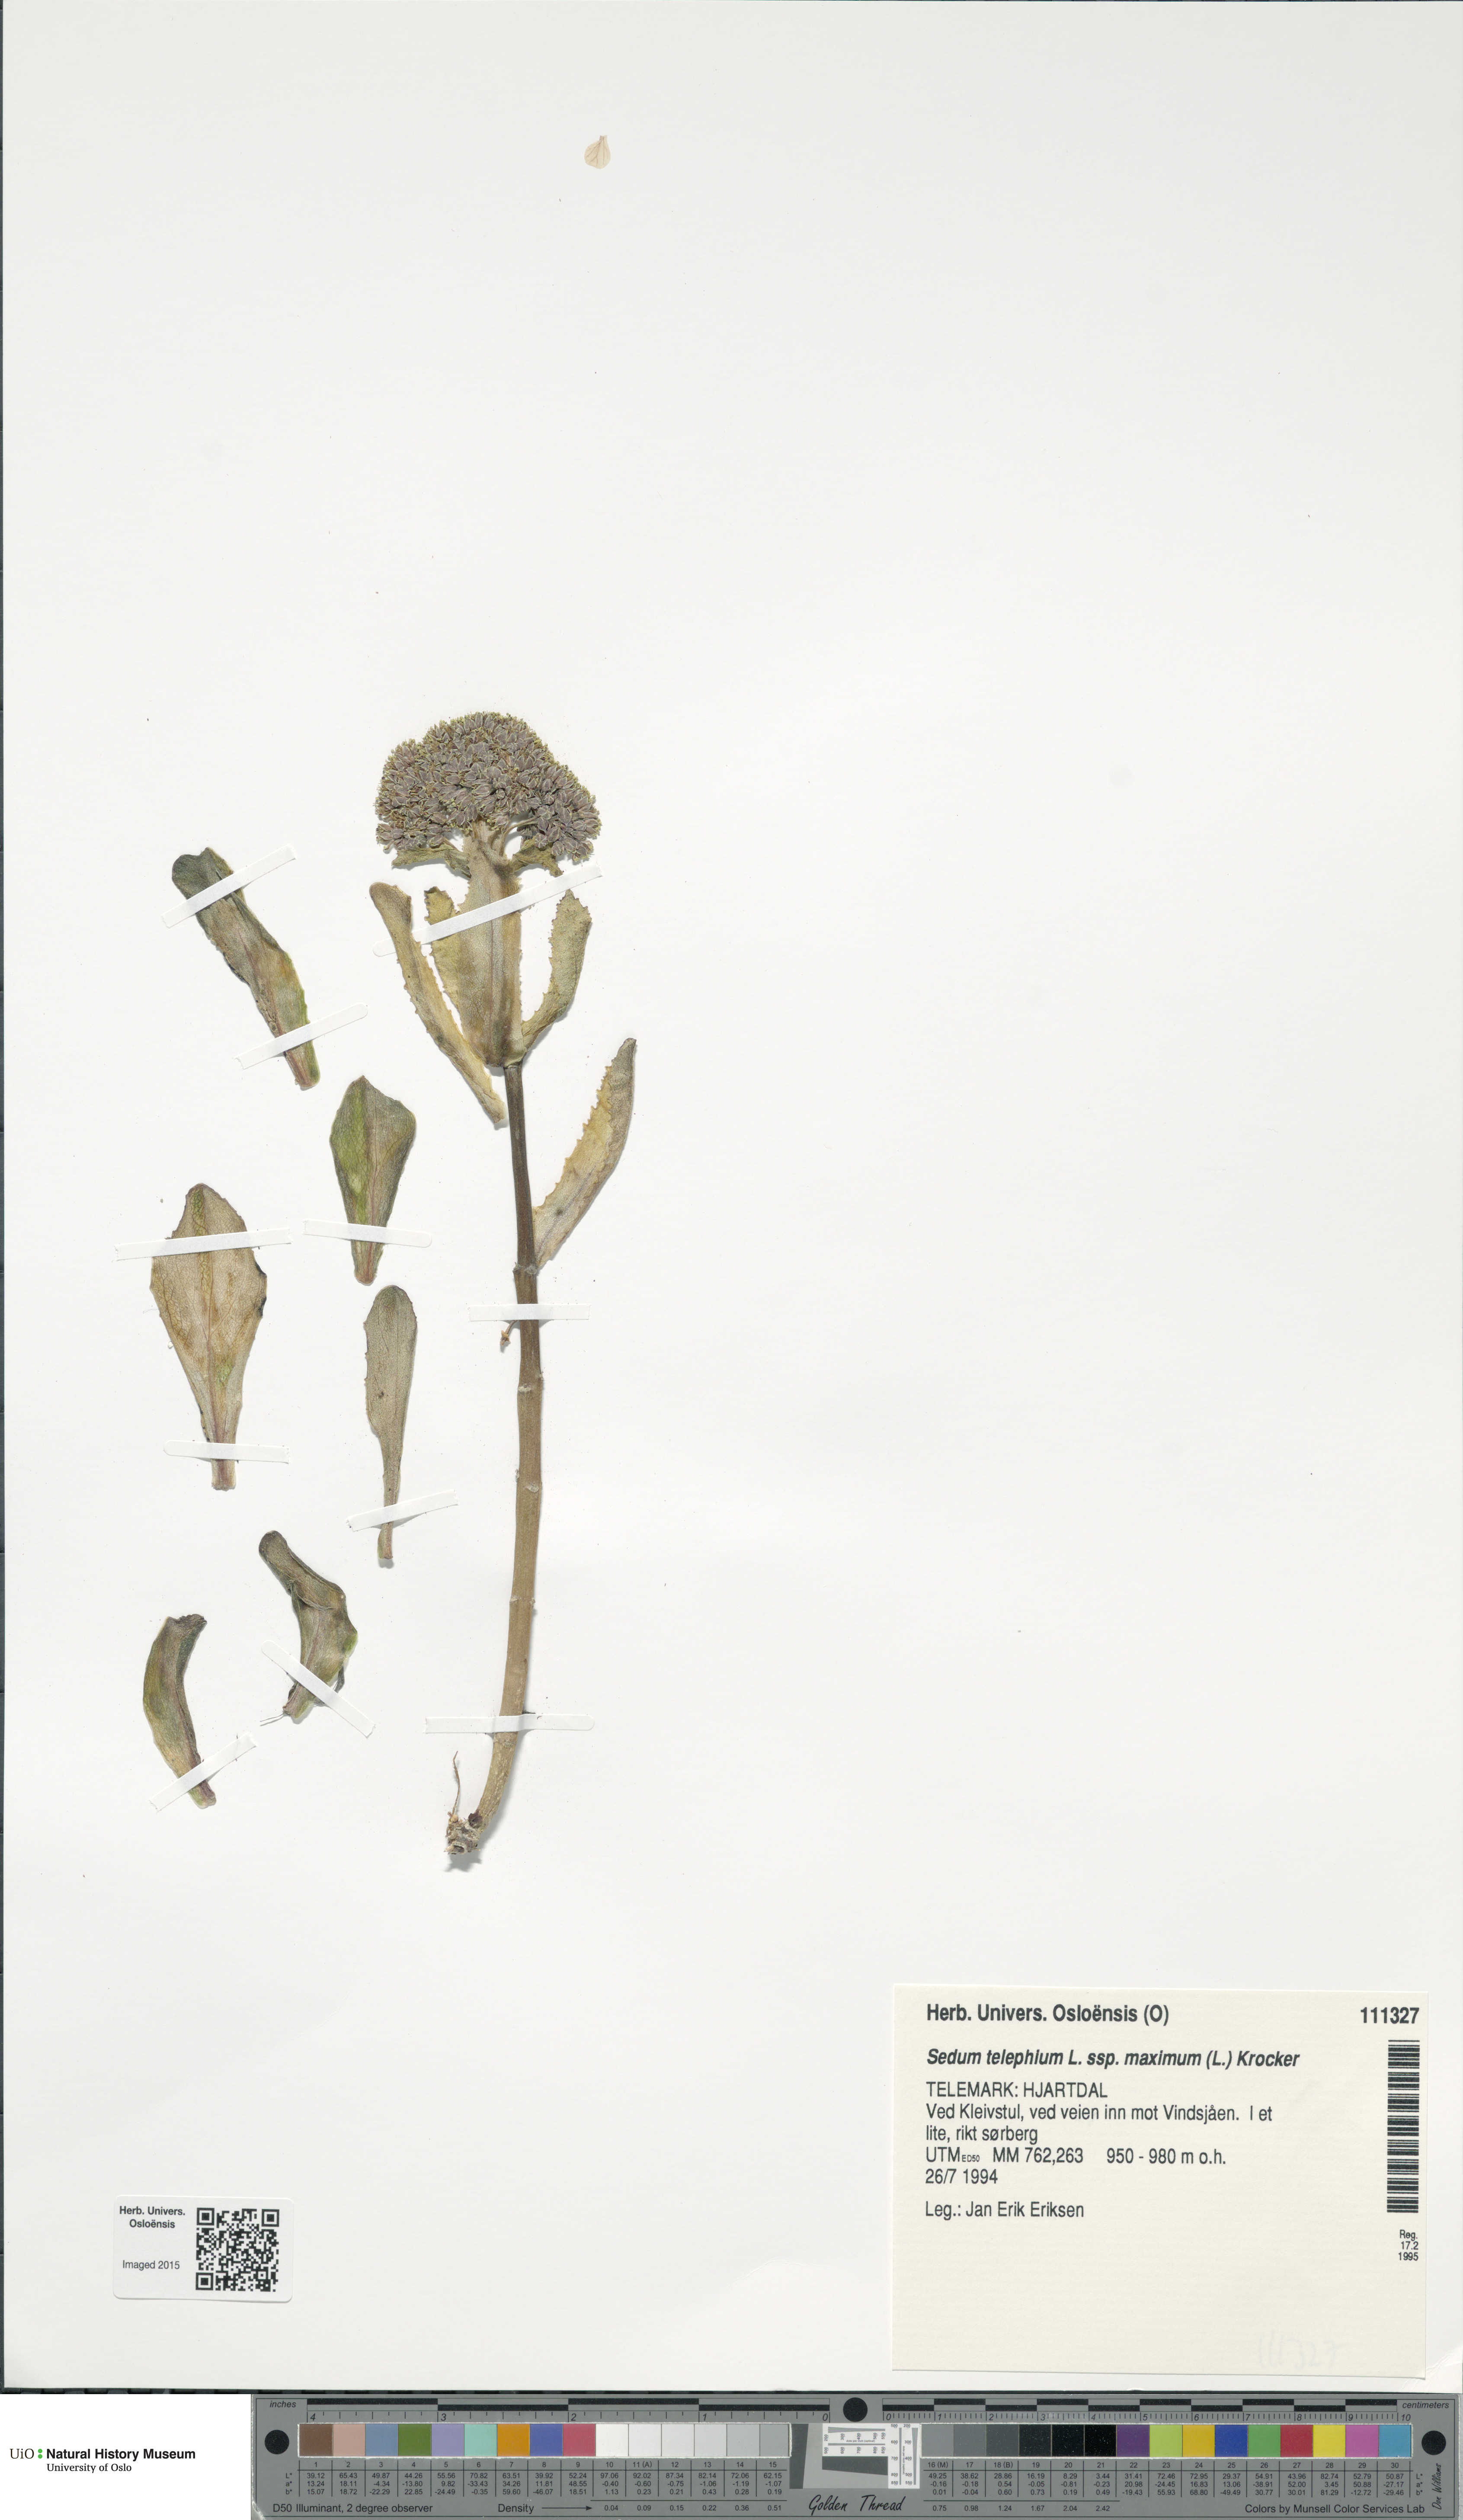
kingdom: Plantae
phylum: Tracheophyta
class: Magnoliopsida
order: Saxifragales
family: Crassulaceae
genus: Hylotelephium
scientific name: Hylotelephium maximum
